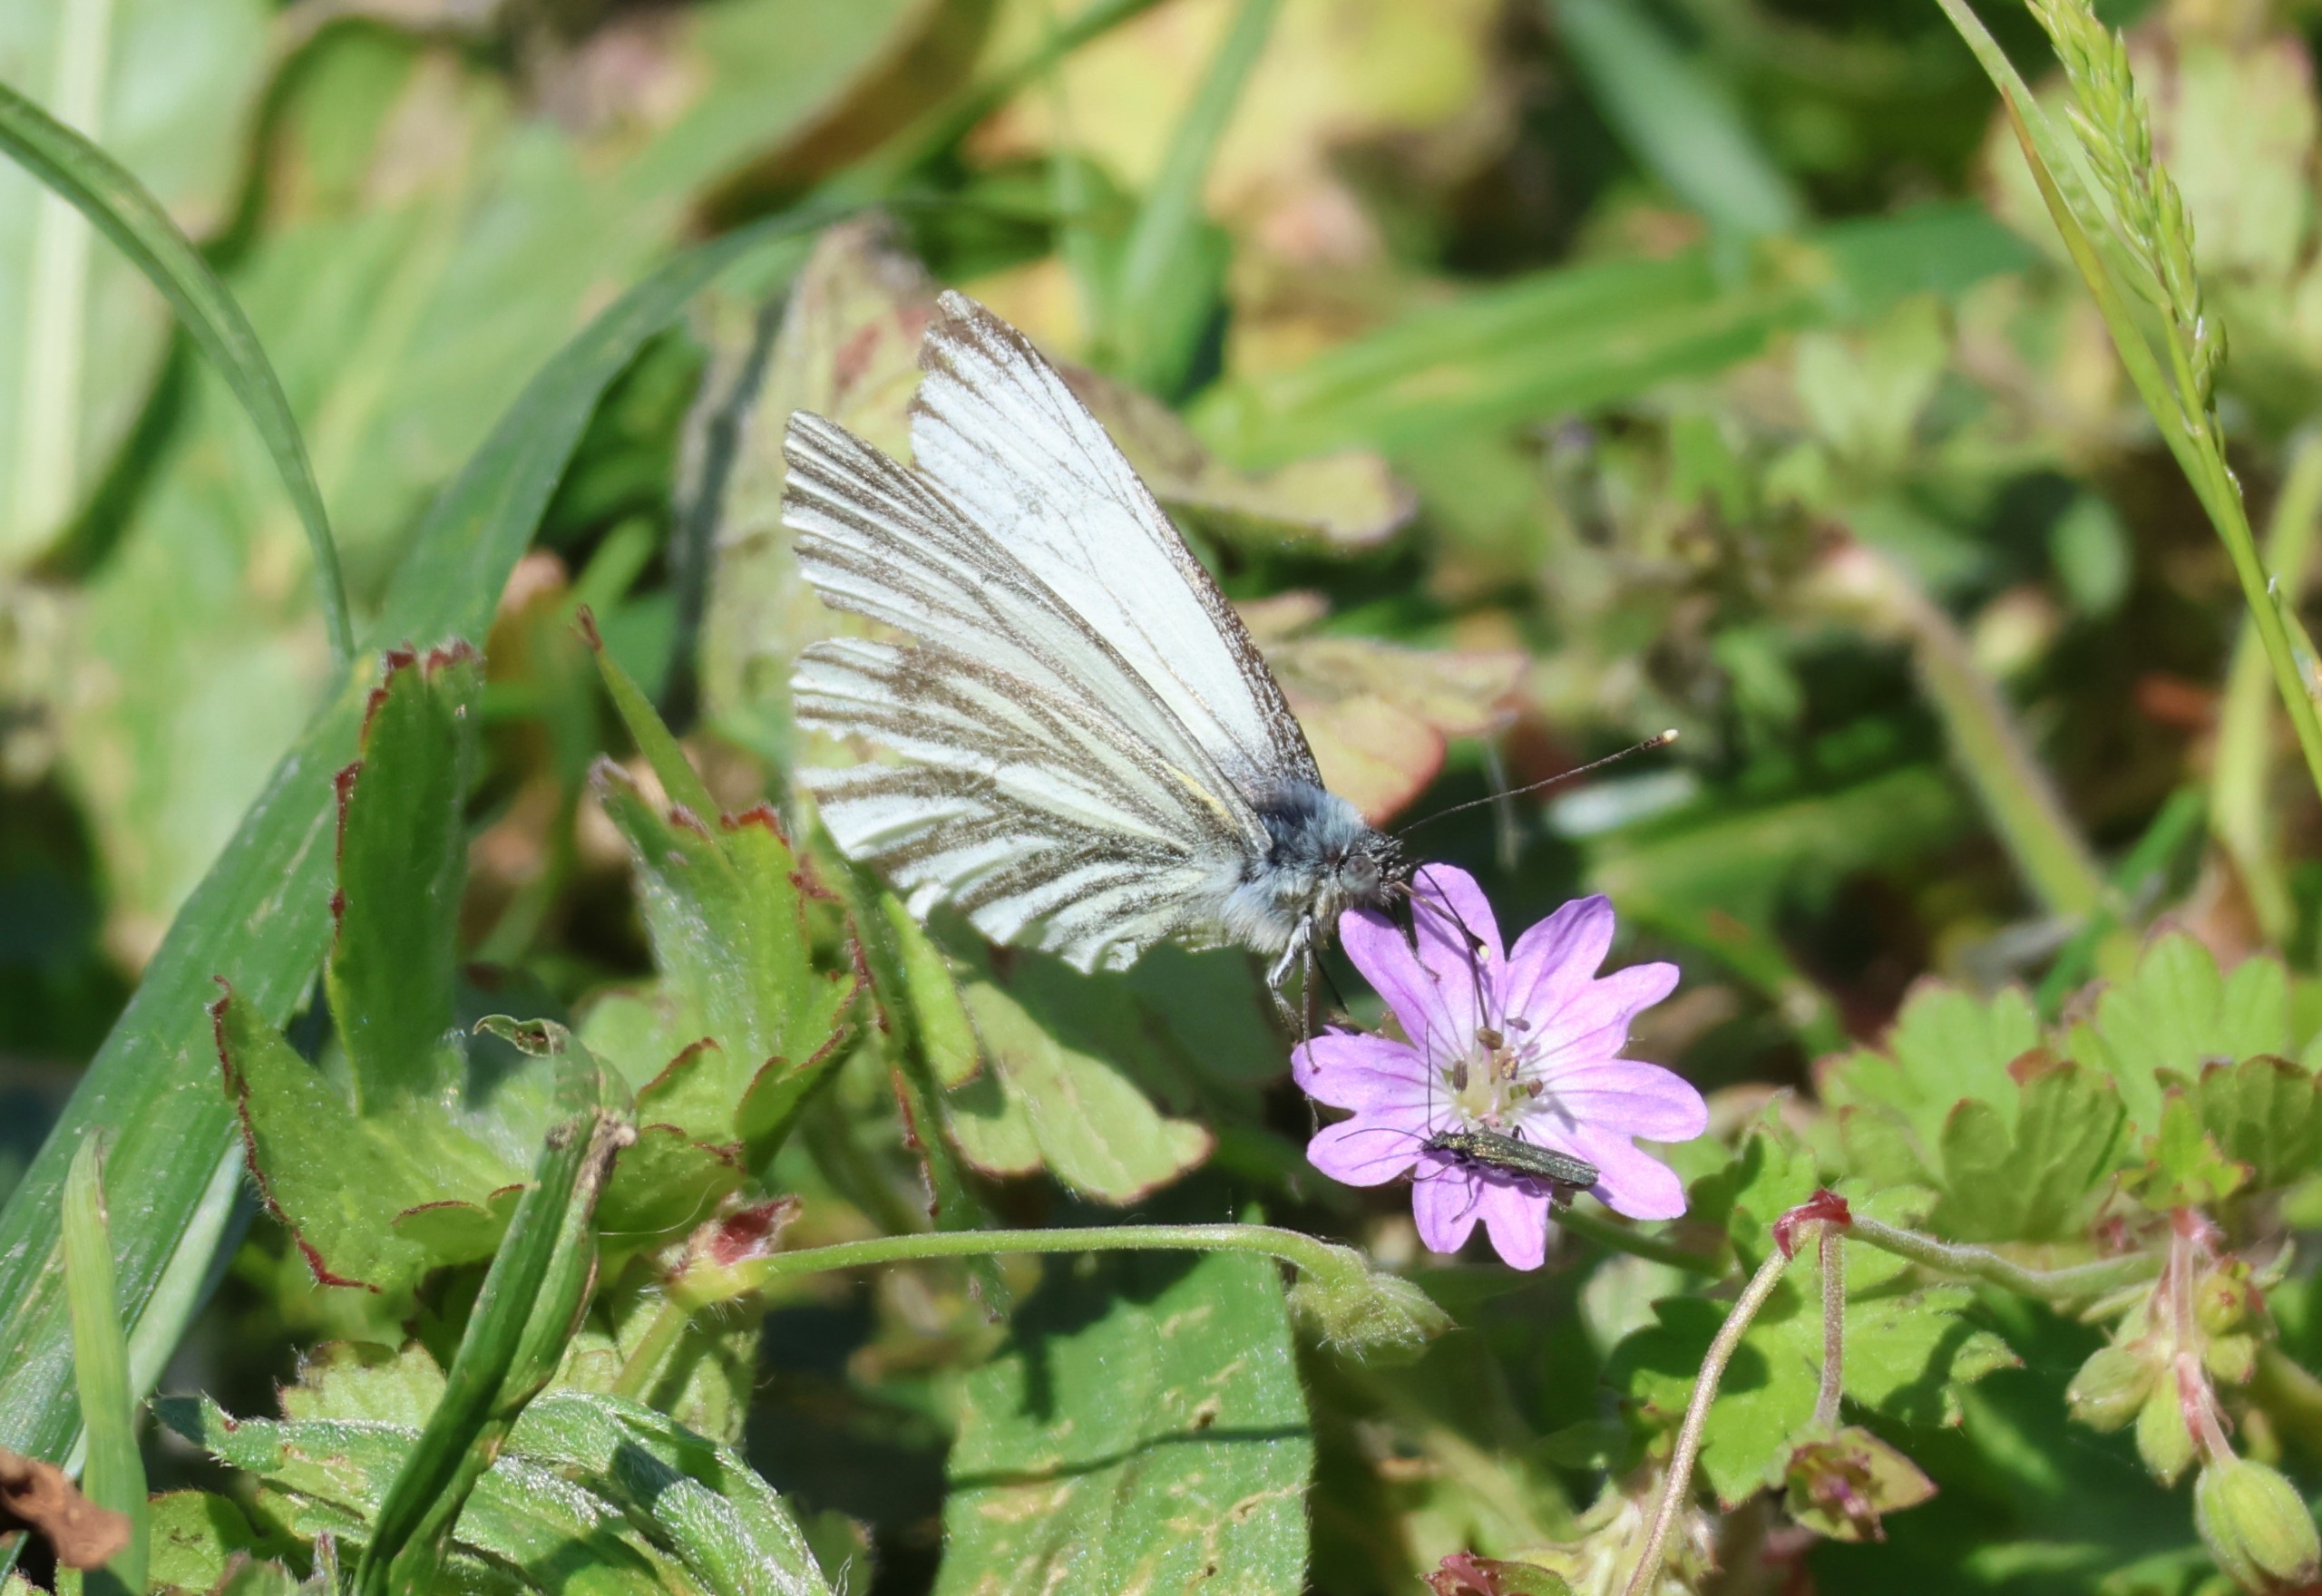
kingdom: Animalia
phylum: Arthropoda
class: Insecta
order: Lepidoptera
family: Pieridae
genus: Pieris
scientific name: Pieris napi
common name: Grønåret kålsommerfugl
